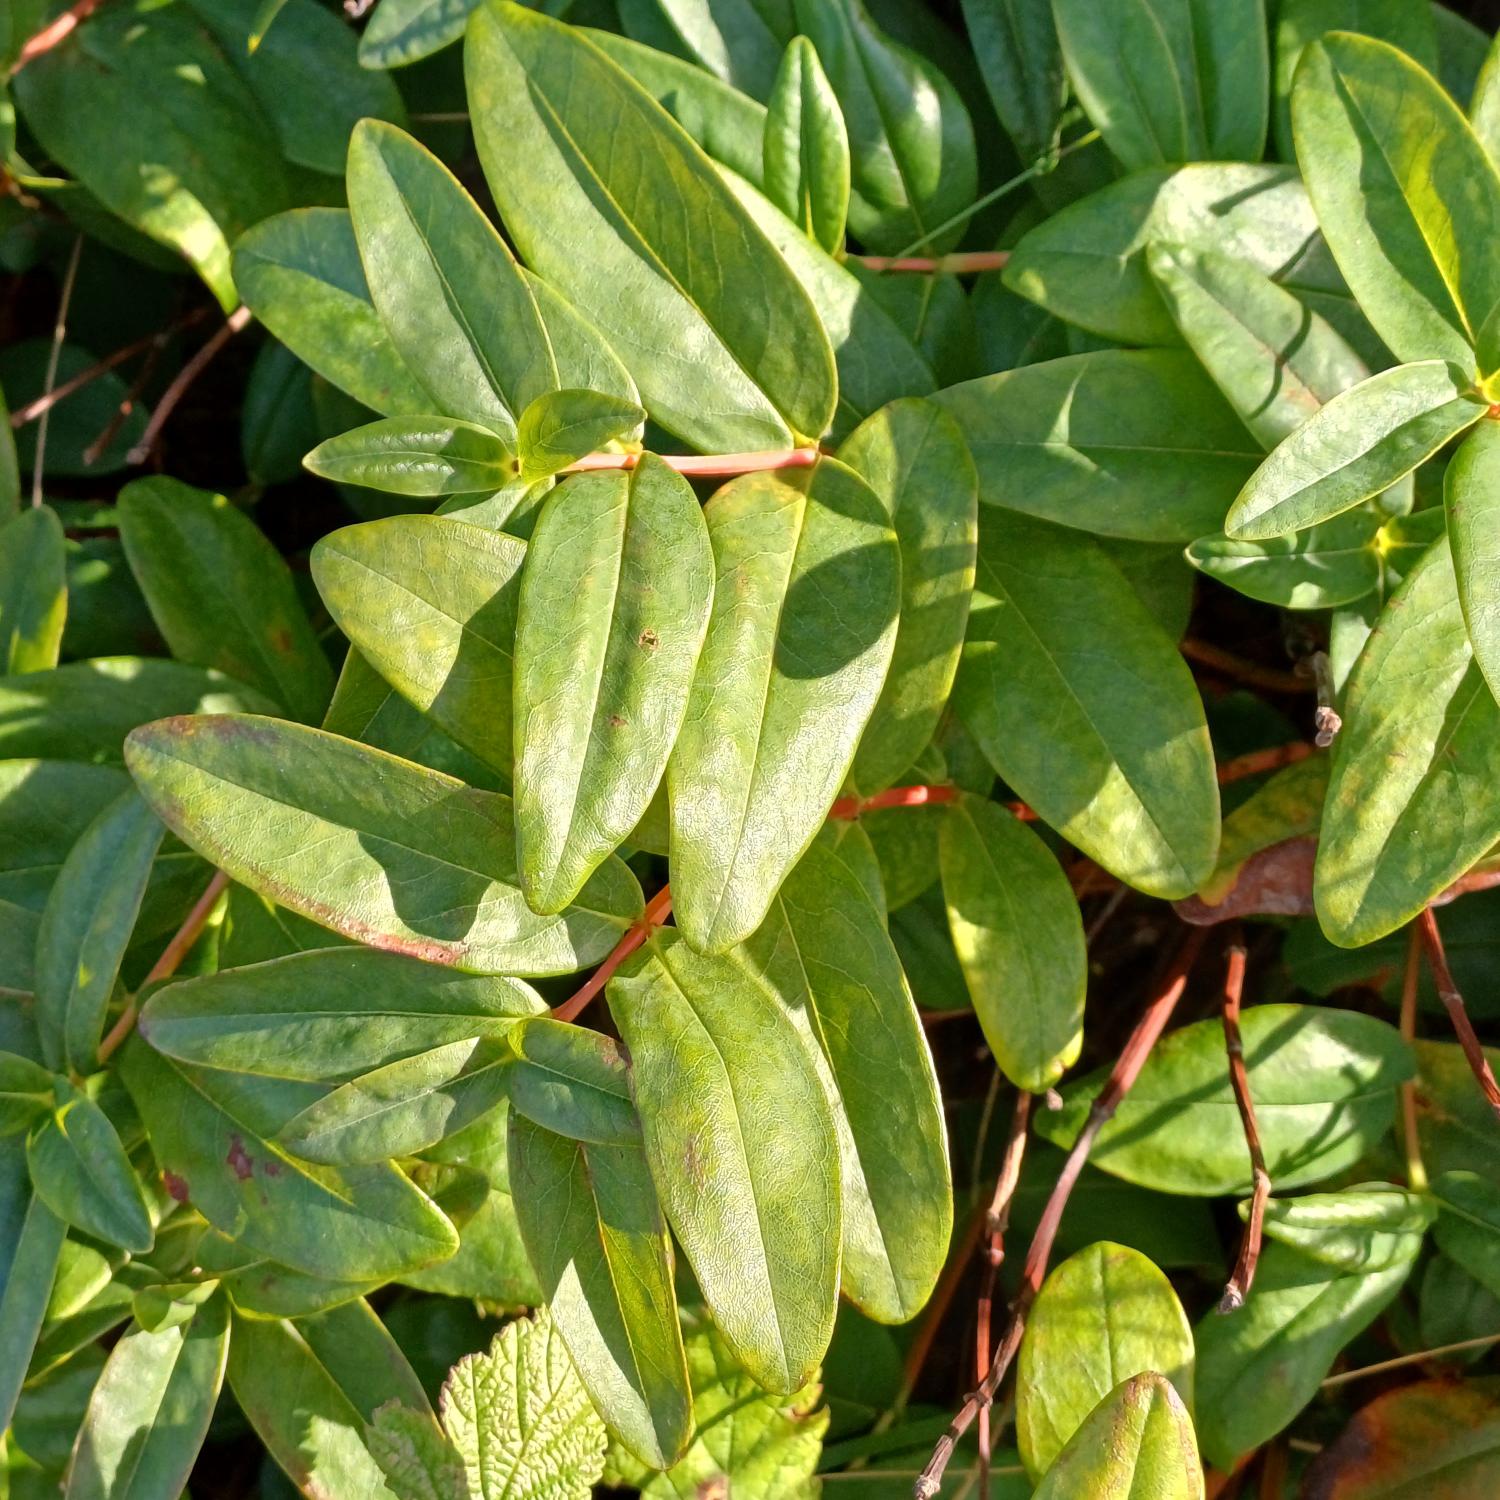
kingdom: Plantae
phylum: Tracheophyta
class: Magnoliopsida
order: Malpighiales
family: Hypericaceae
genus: Hypericum
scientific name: Hypericum calycinum
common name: Storblomstret perikon
